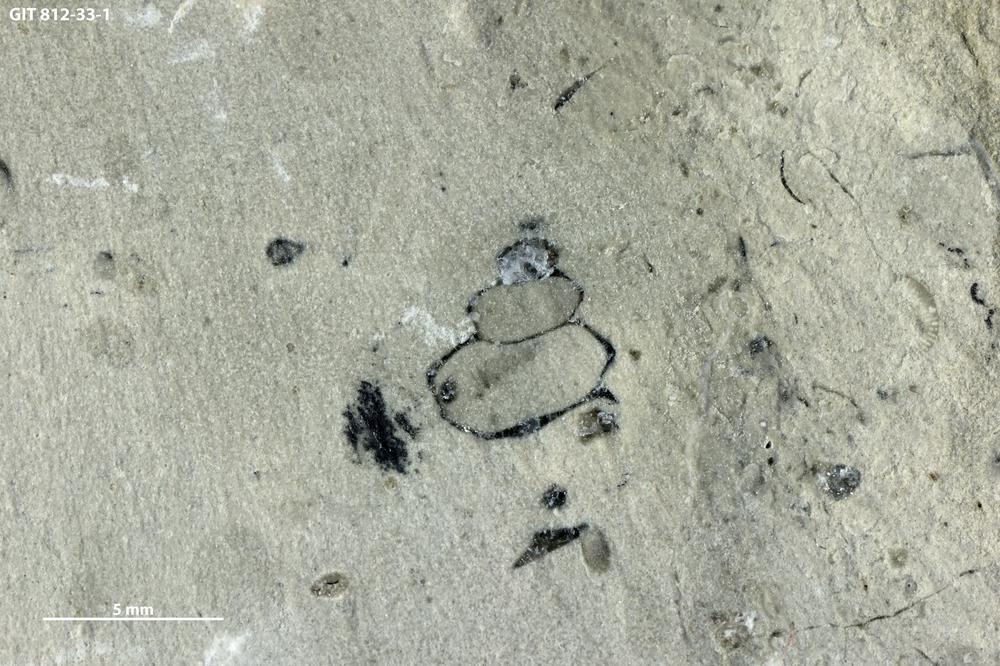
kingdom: Animalia
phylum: Mollusca
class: Gastropoda
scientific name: Gastropoda
